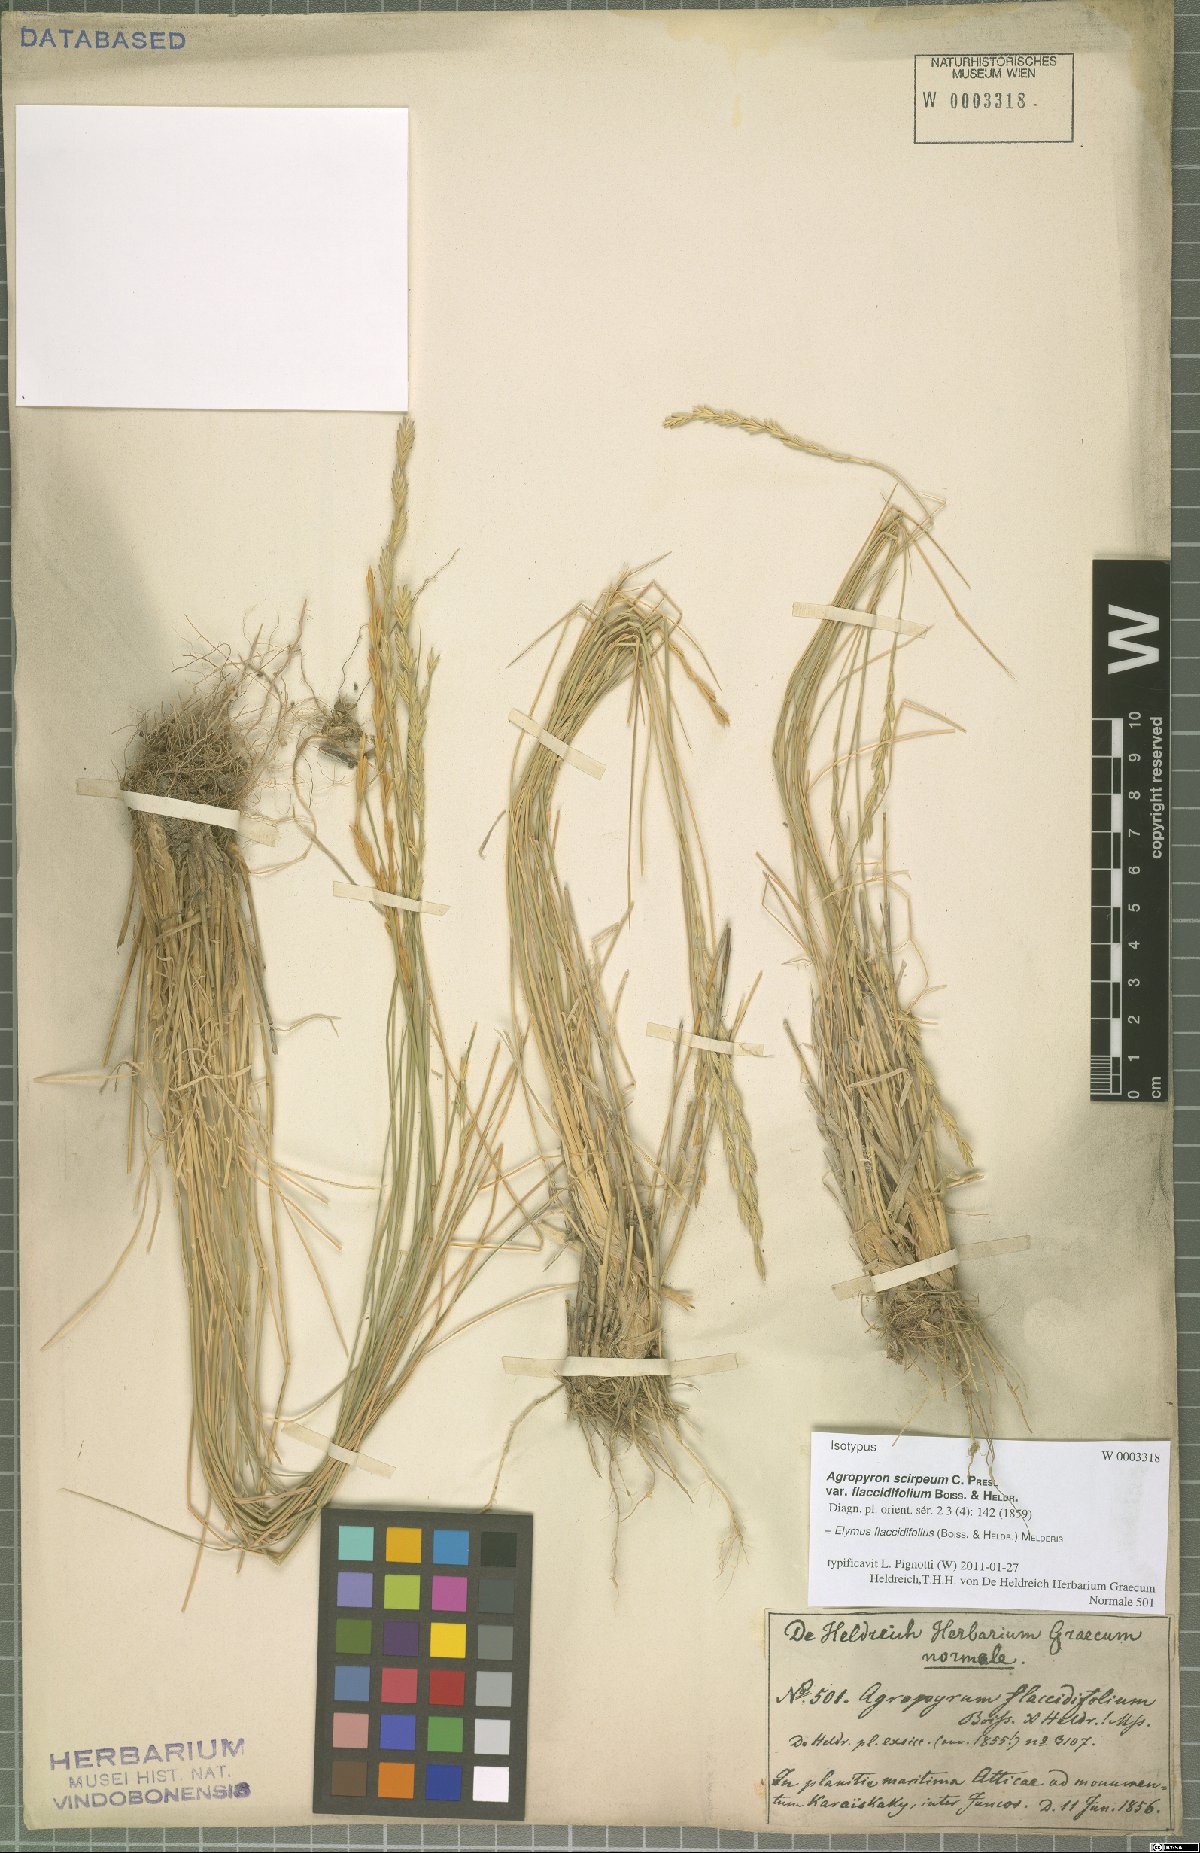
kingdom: Plantae
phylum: Tracheophyta
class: Liliopsida
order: Poales
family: Poaceae
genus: Thinopyrum
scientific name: Thinopyrum flaccidifolium
